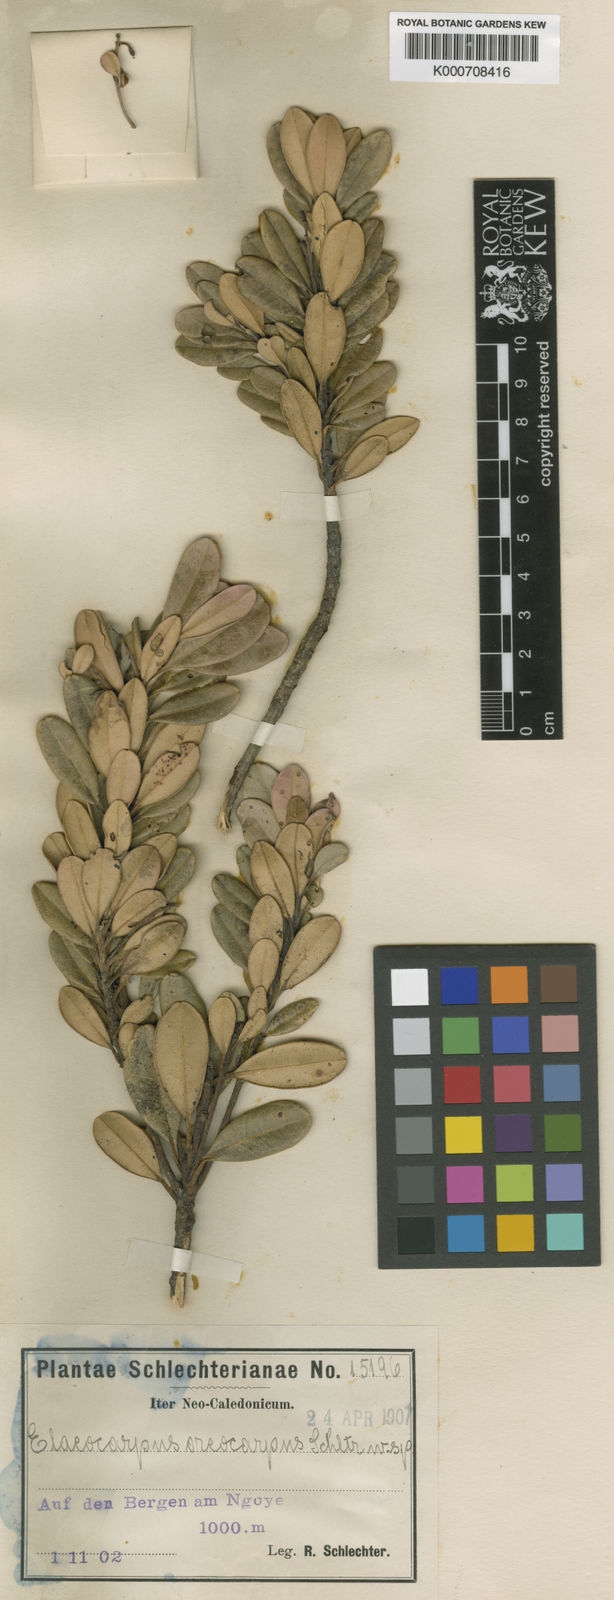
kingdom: Plantae
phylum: Tracheophyta
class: Magnoliopsida
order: Oxalidales
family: Elaeocarpaceae
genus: Elaeocarpus
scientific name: Elaeocarpus pulchellus
